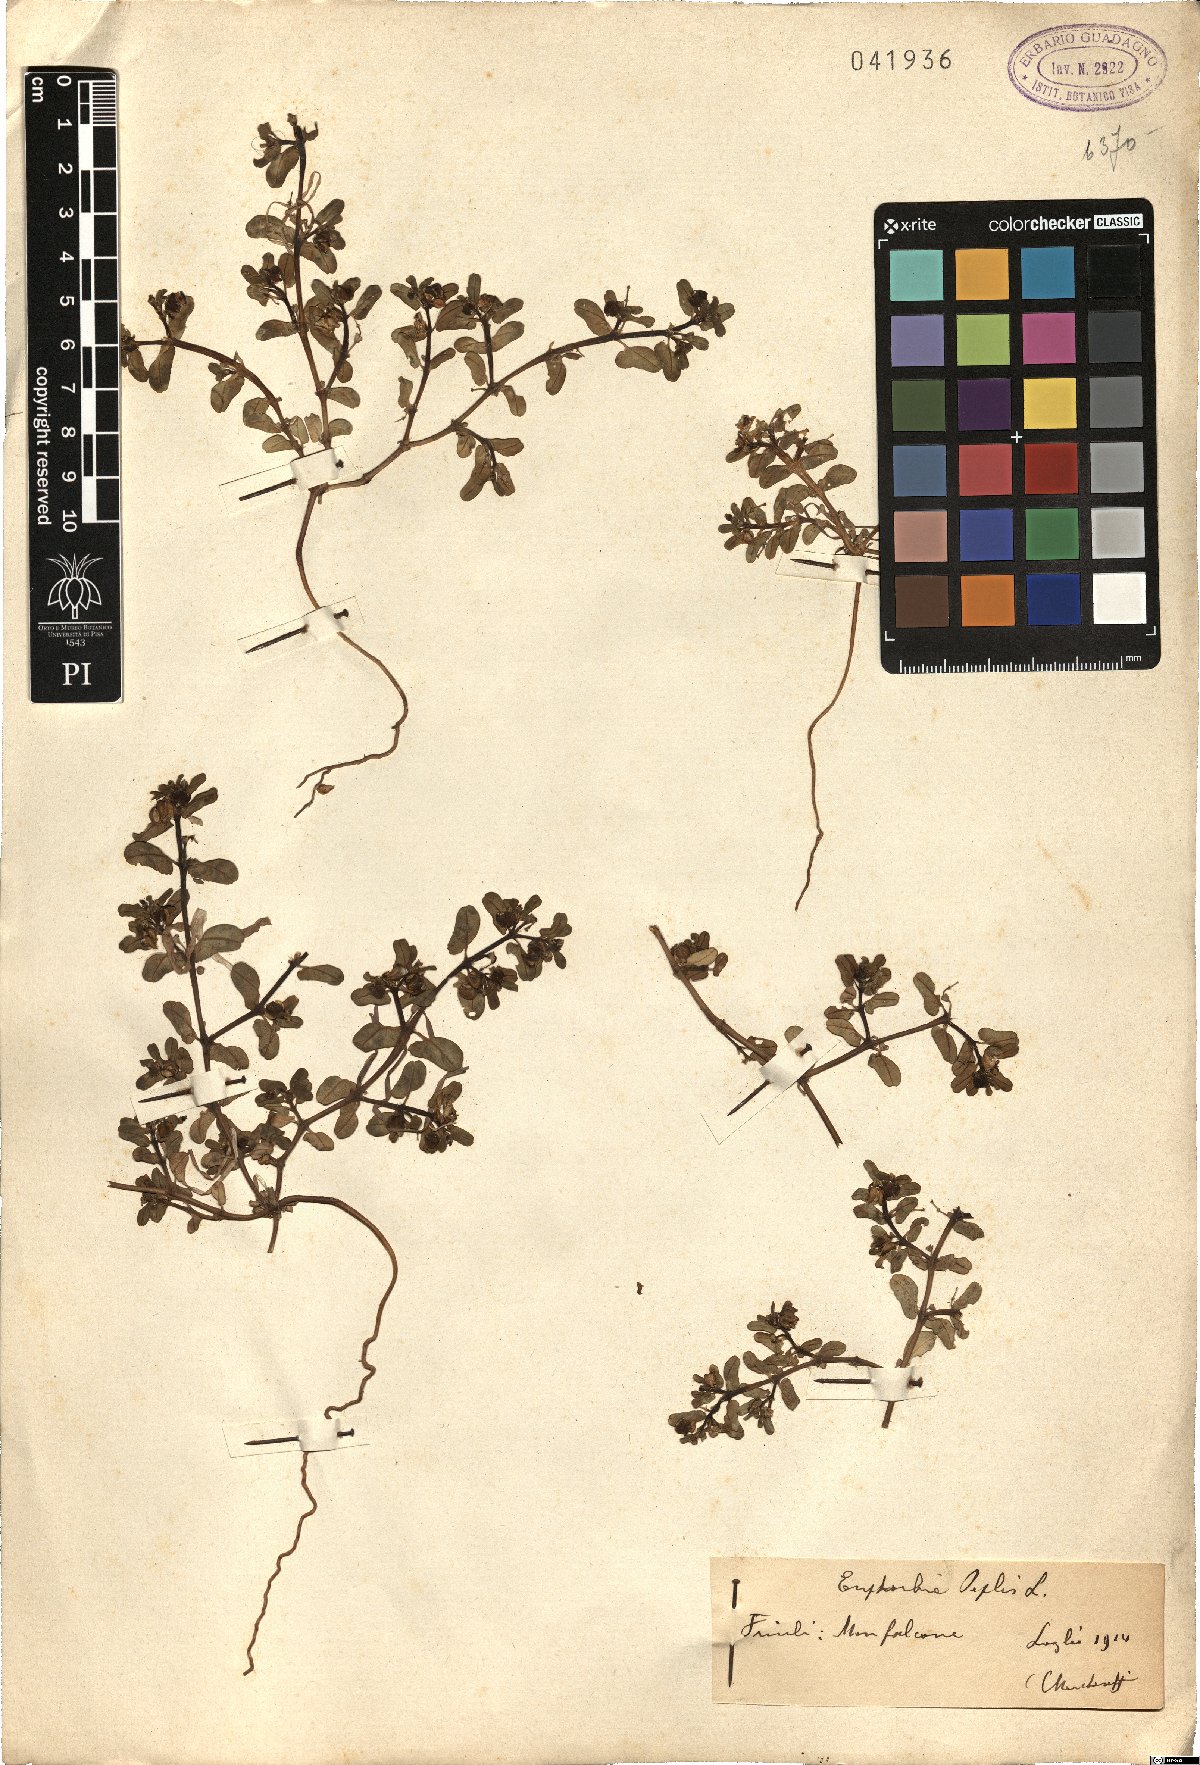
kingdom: Plantae
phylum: Tracheophyta
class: Magnoliopsida
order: Malpighiales
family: Euphorbiaceae
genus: Euphorbia
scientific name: Euphorbia peplis
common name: Purple spurge
